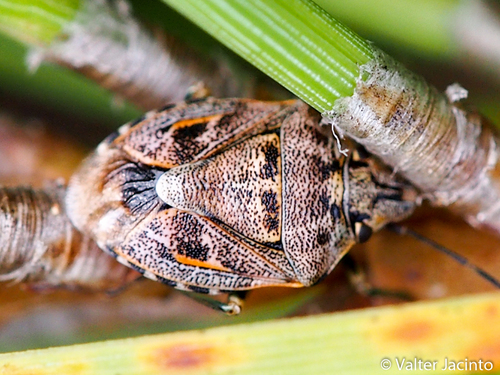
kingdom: Animalia
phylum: Arthropoda
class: Insecta
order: Hemiptera
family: Pentatomidae
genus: Holcogaster
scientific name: Holcogaster fibulata
